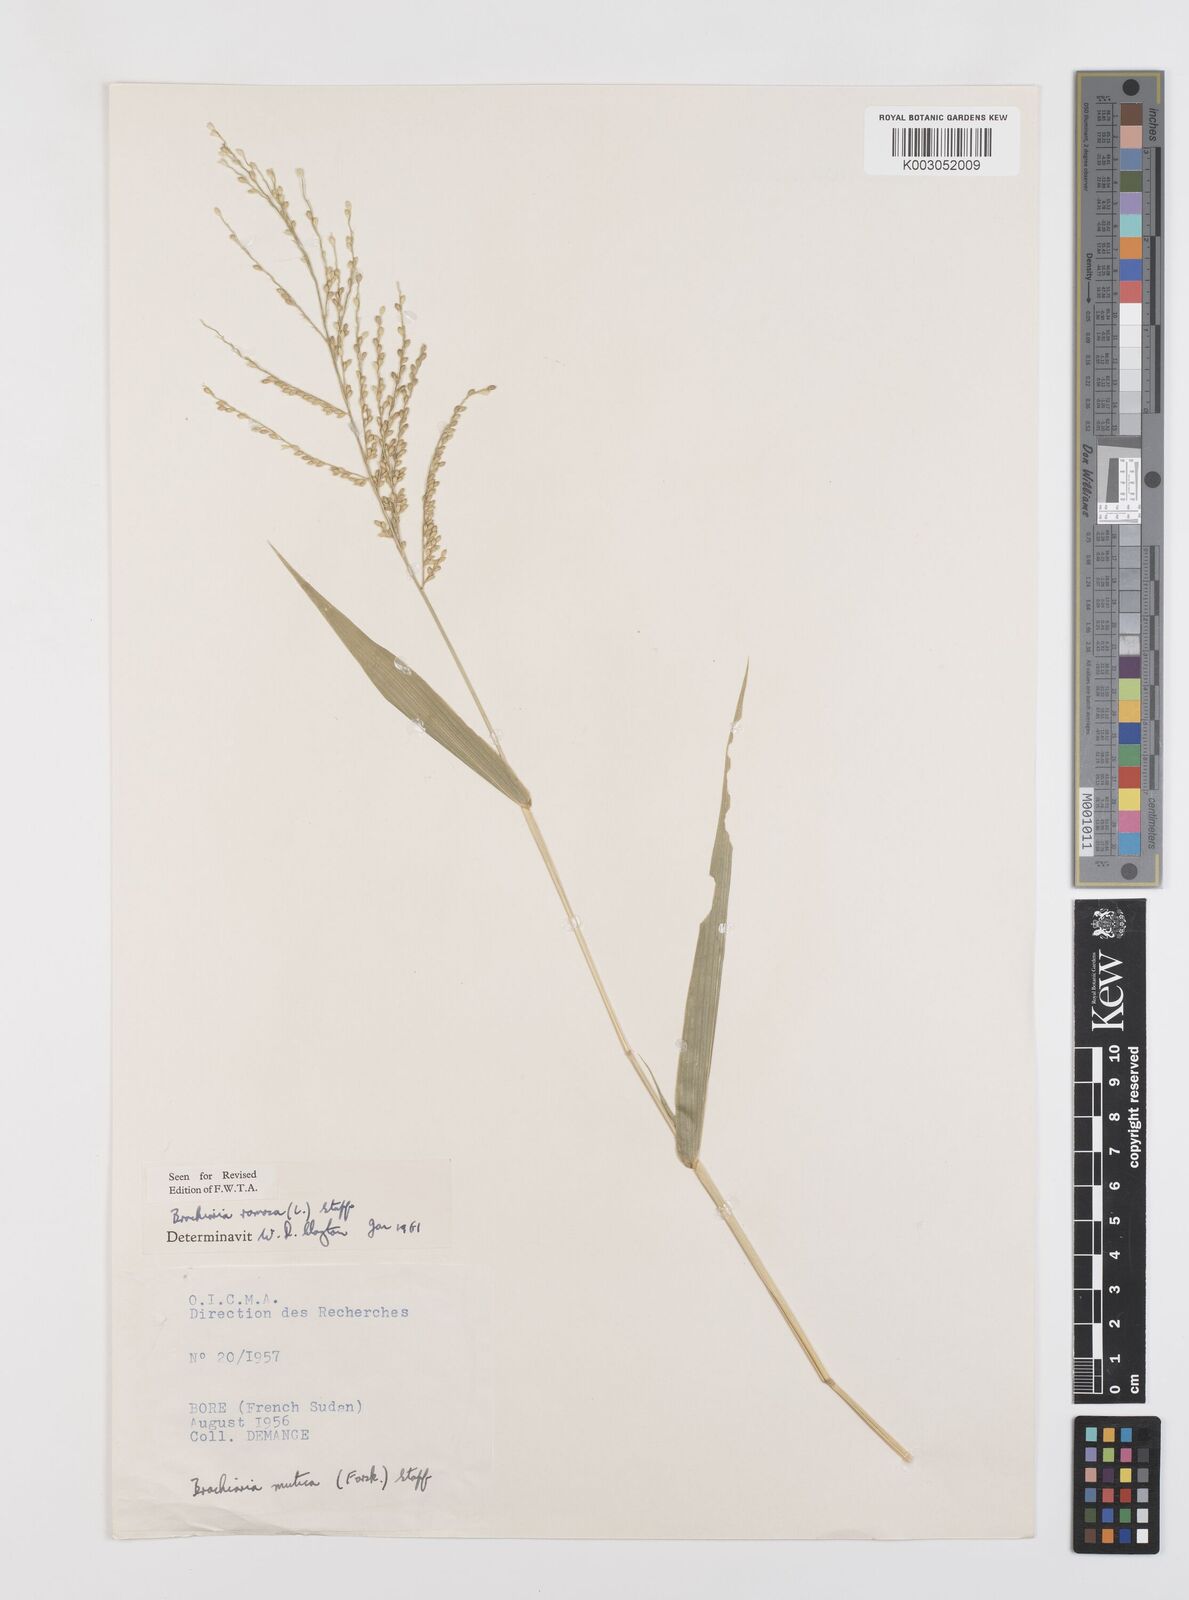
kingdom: Plantae
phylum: Tracheophyta
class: Liliopsida
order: Poales
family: Poaceae
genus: Urochloa
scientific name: Urochloa ramosa
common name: Browntop millet
